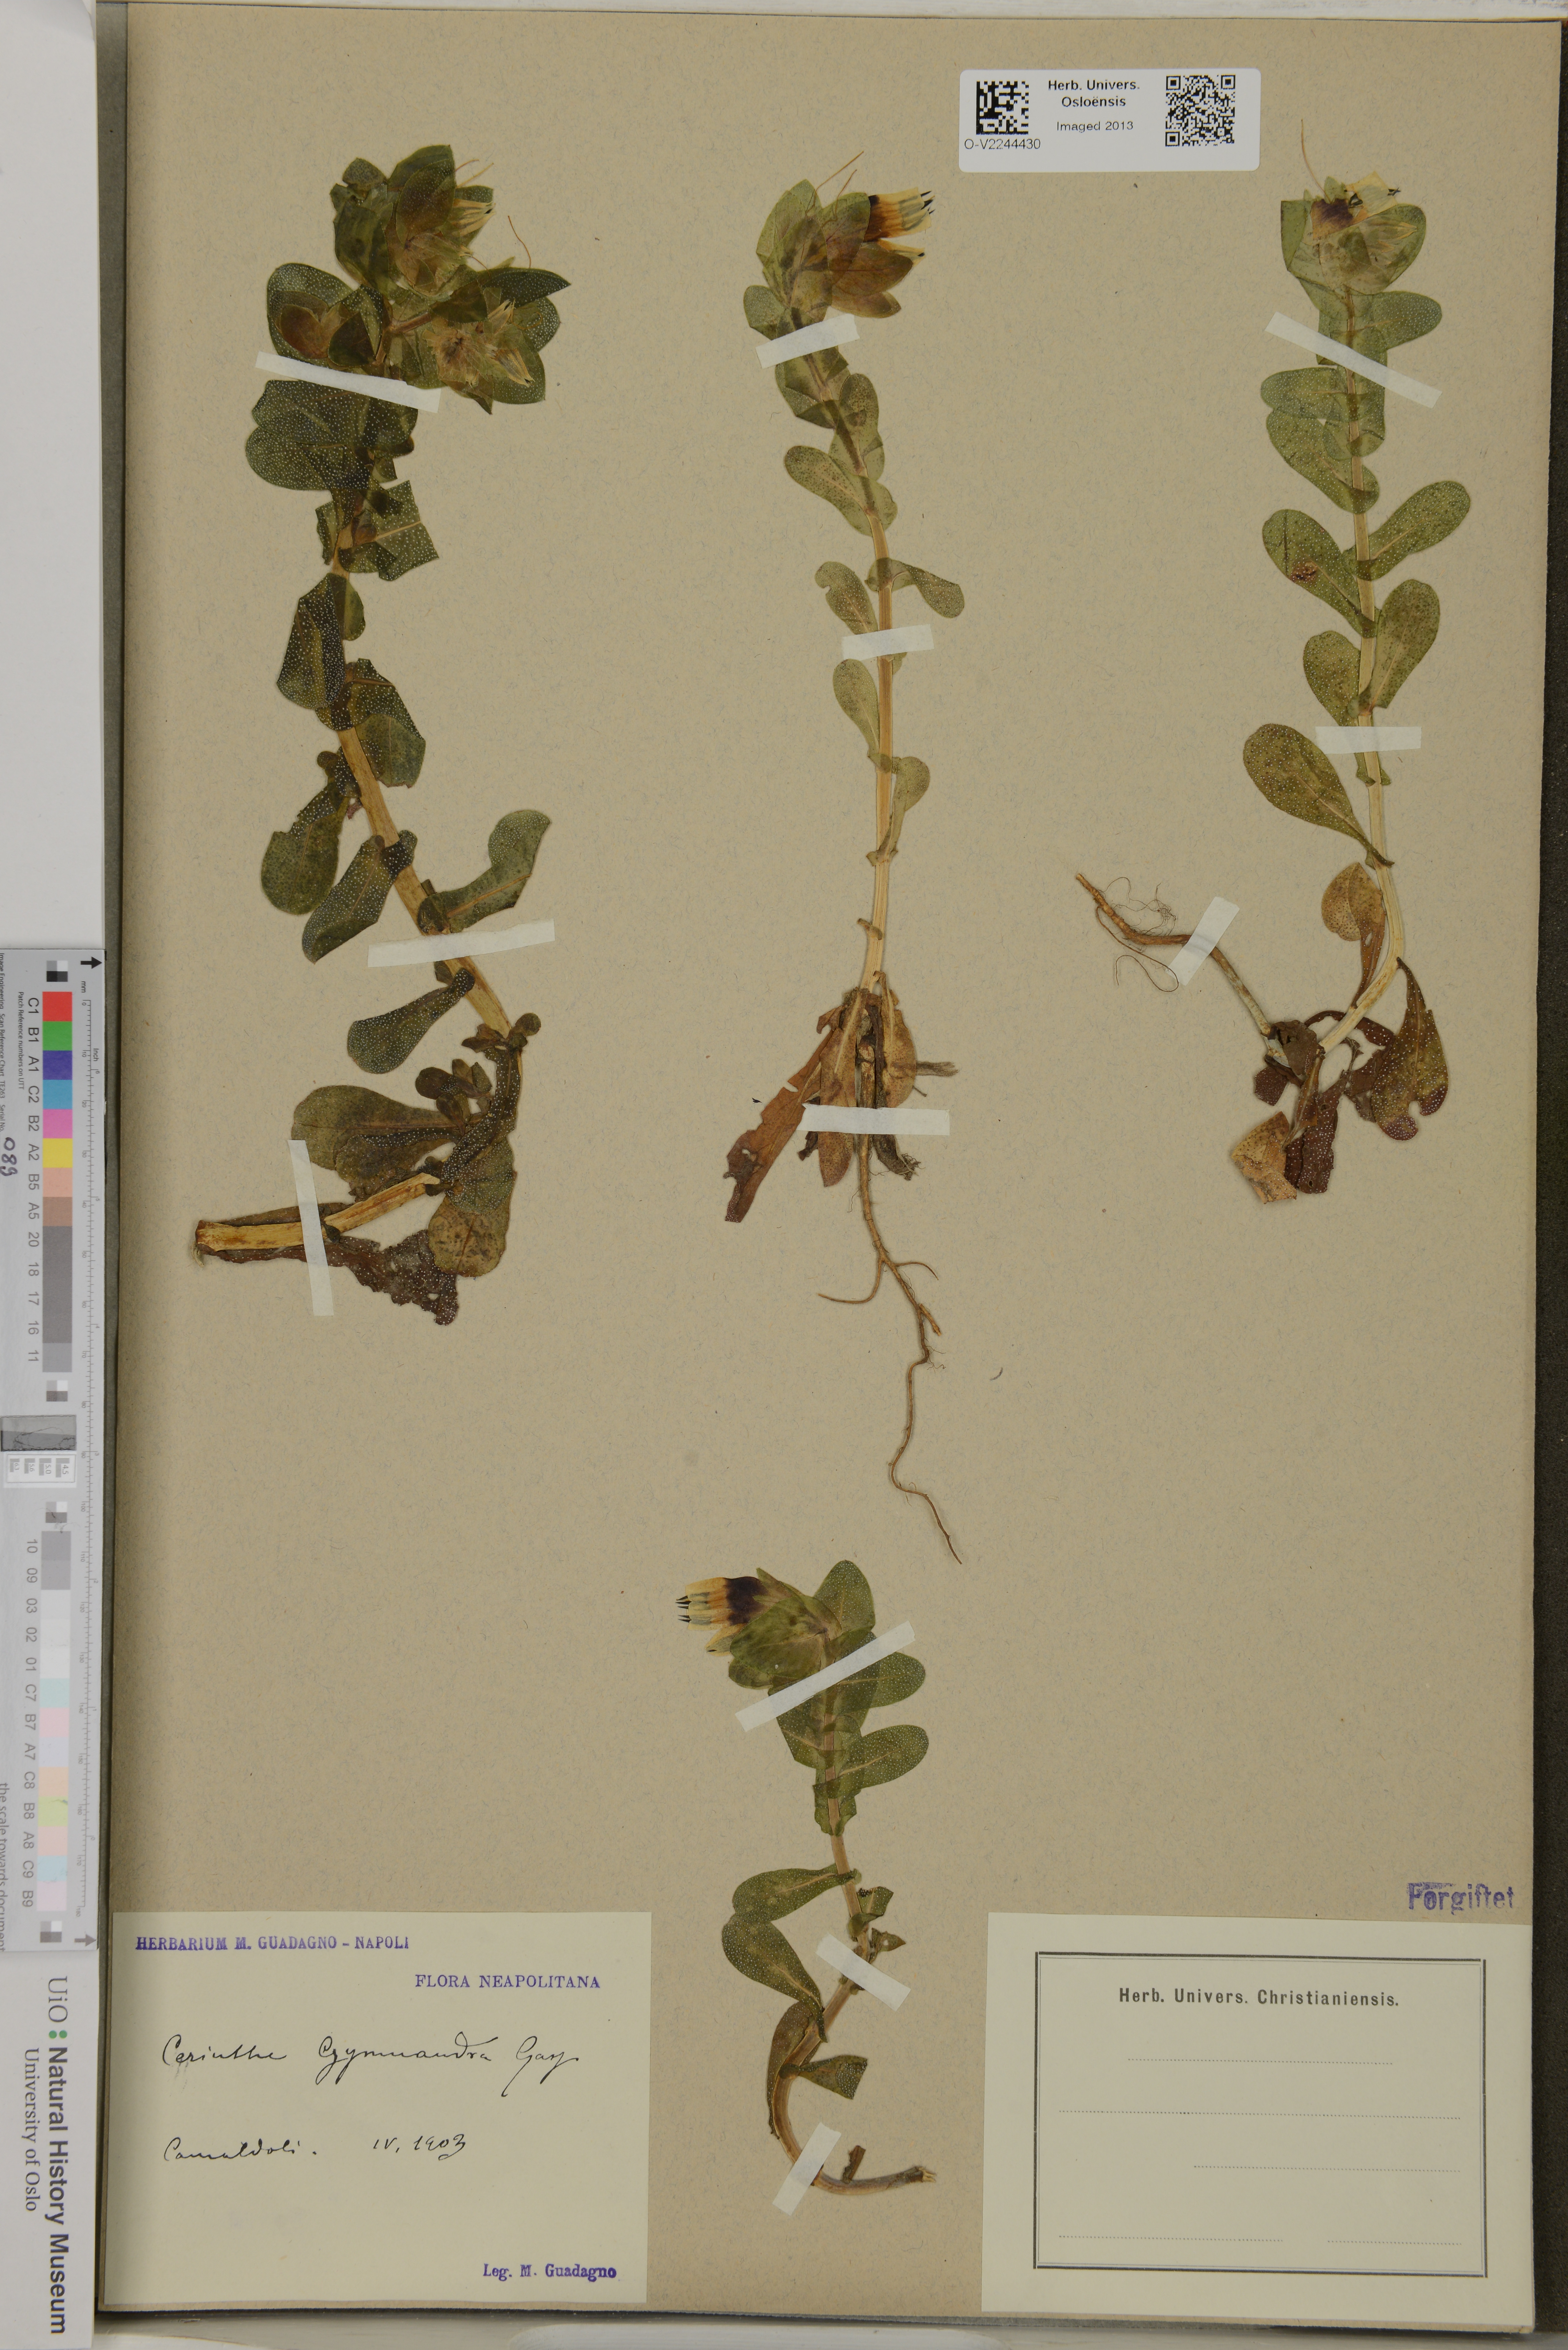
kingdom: Plantae
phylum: Tracheophyta
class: Magnoliopsida
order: Boraginales
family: Boraginaceae
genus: Cerinthe
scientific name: Cerinthe major
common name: Greater honeywort
